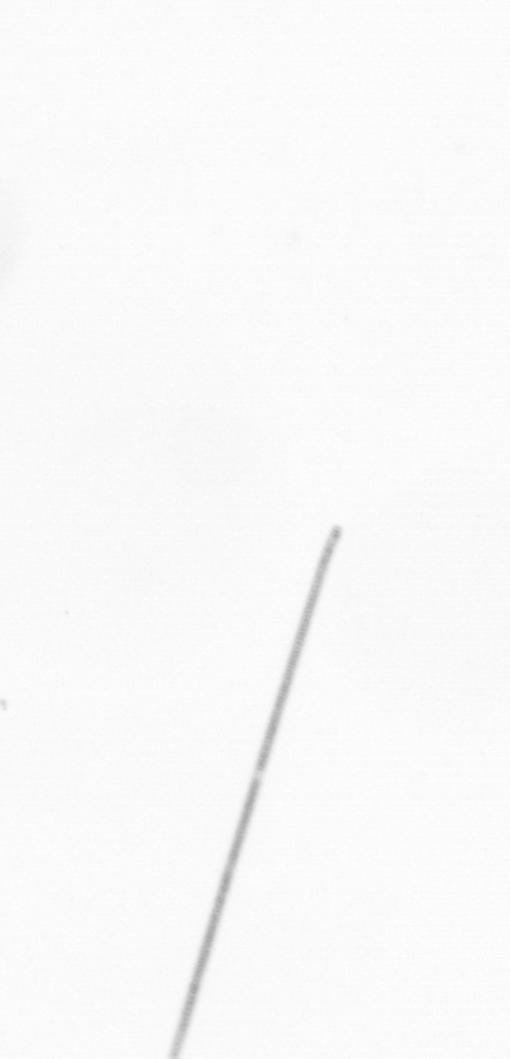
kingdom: Chromista
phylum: Ochrophyta
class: Bacillariophyceae
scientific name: Bacillariophyceae
